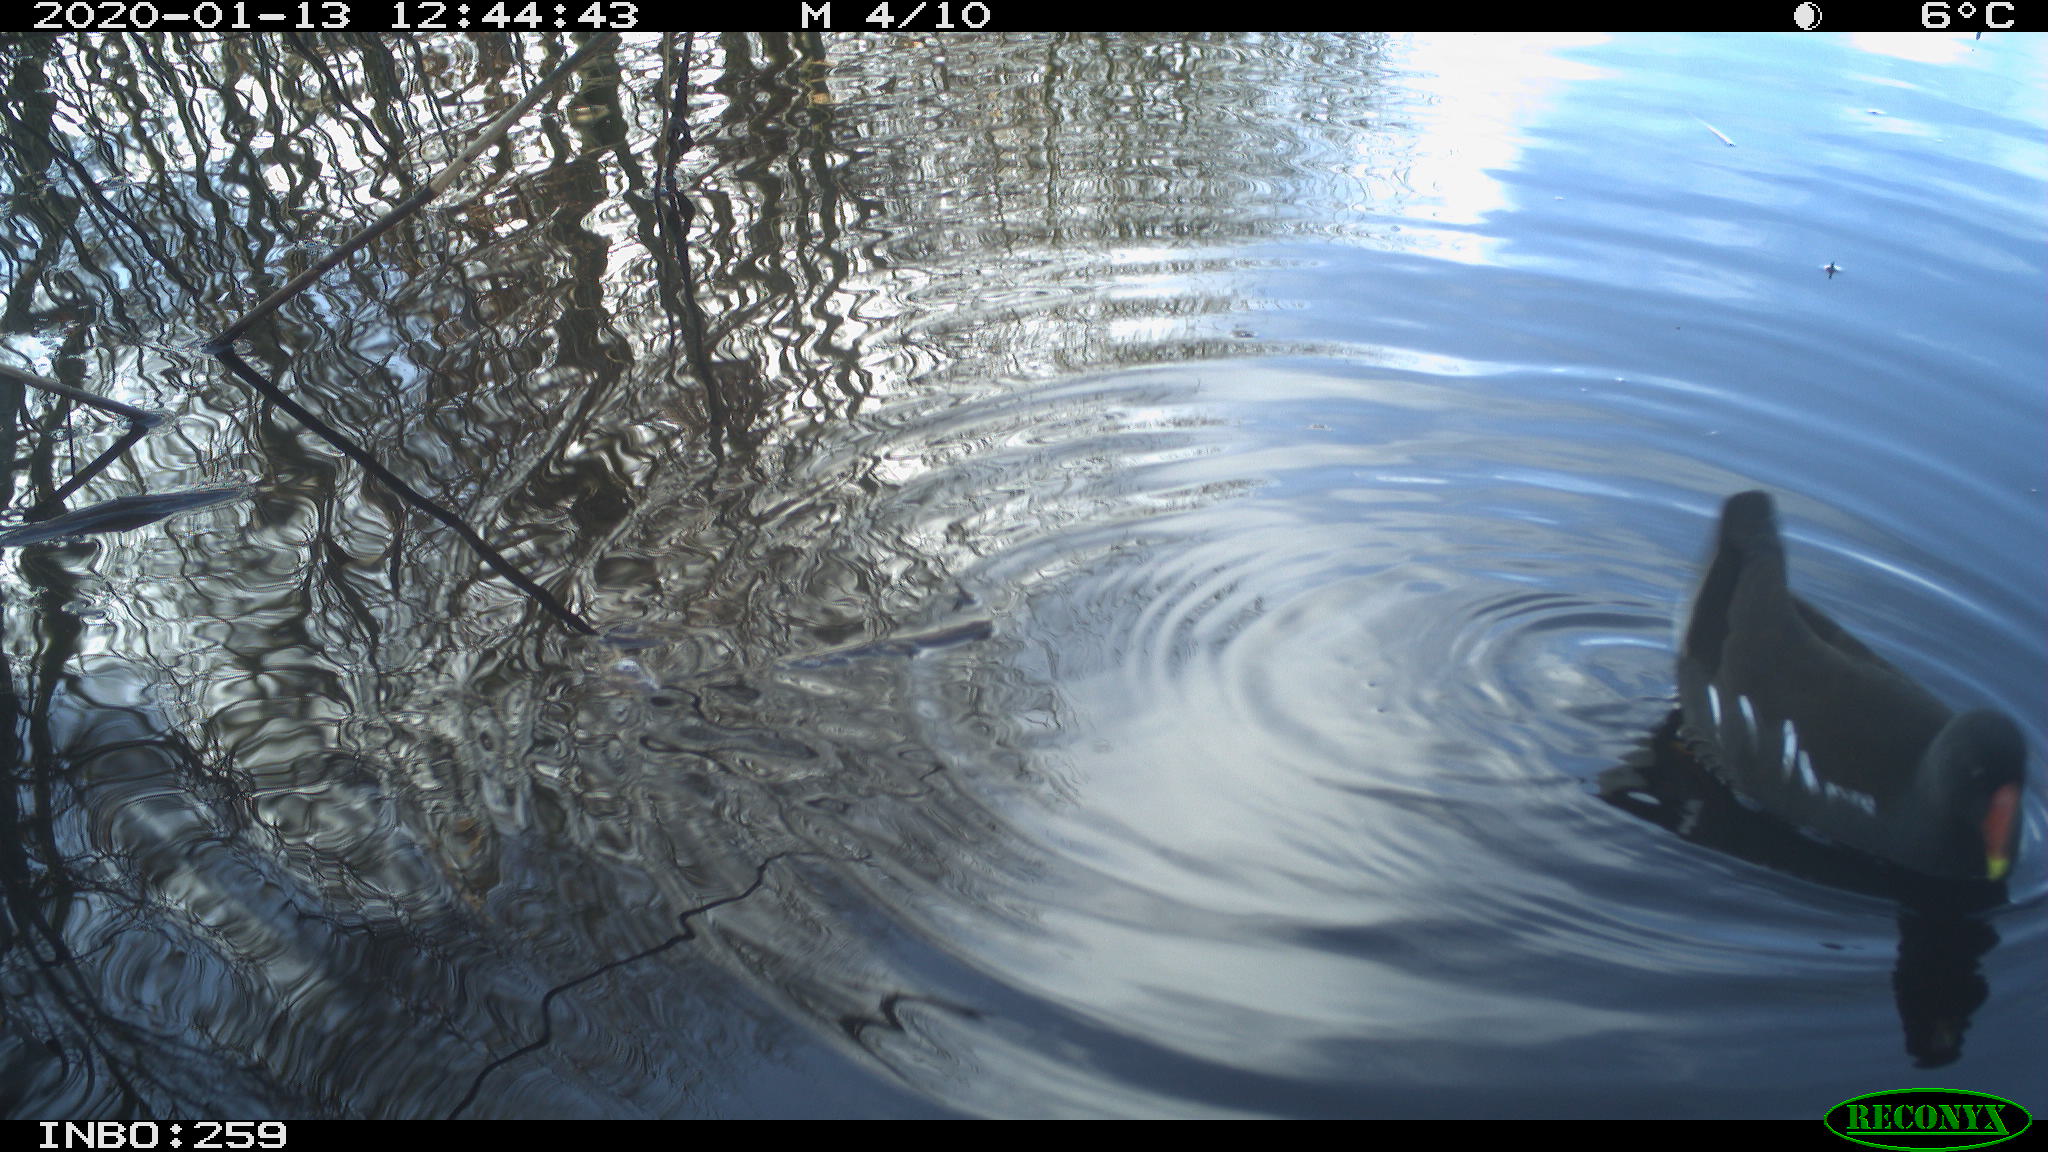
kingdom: Animalia
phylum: Chordata
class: Aves
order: Gruiformes
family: Rallidae
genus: Gallinula
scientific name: Gallinula chloropus
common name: Common moorhen
